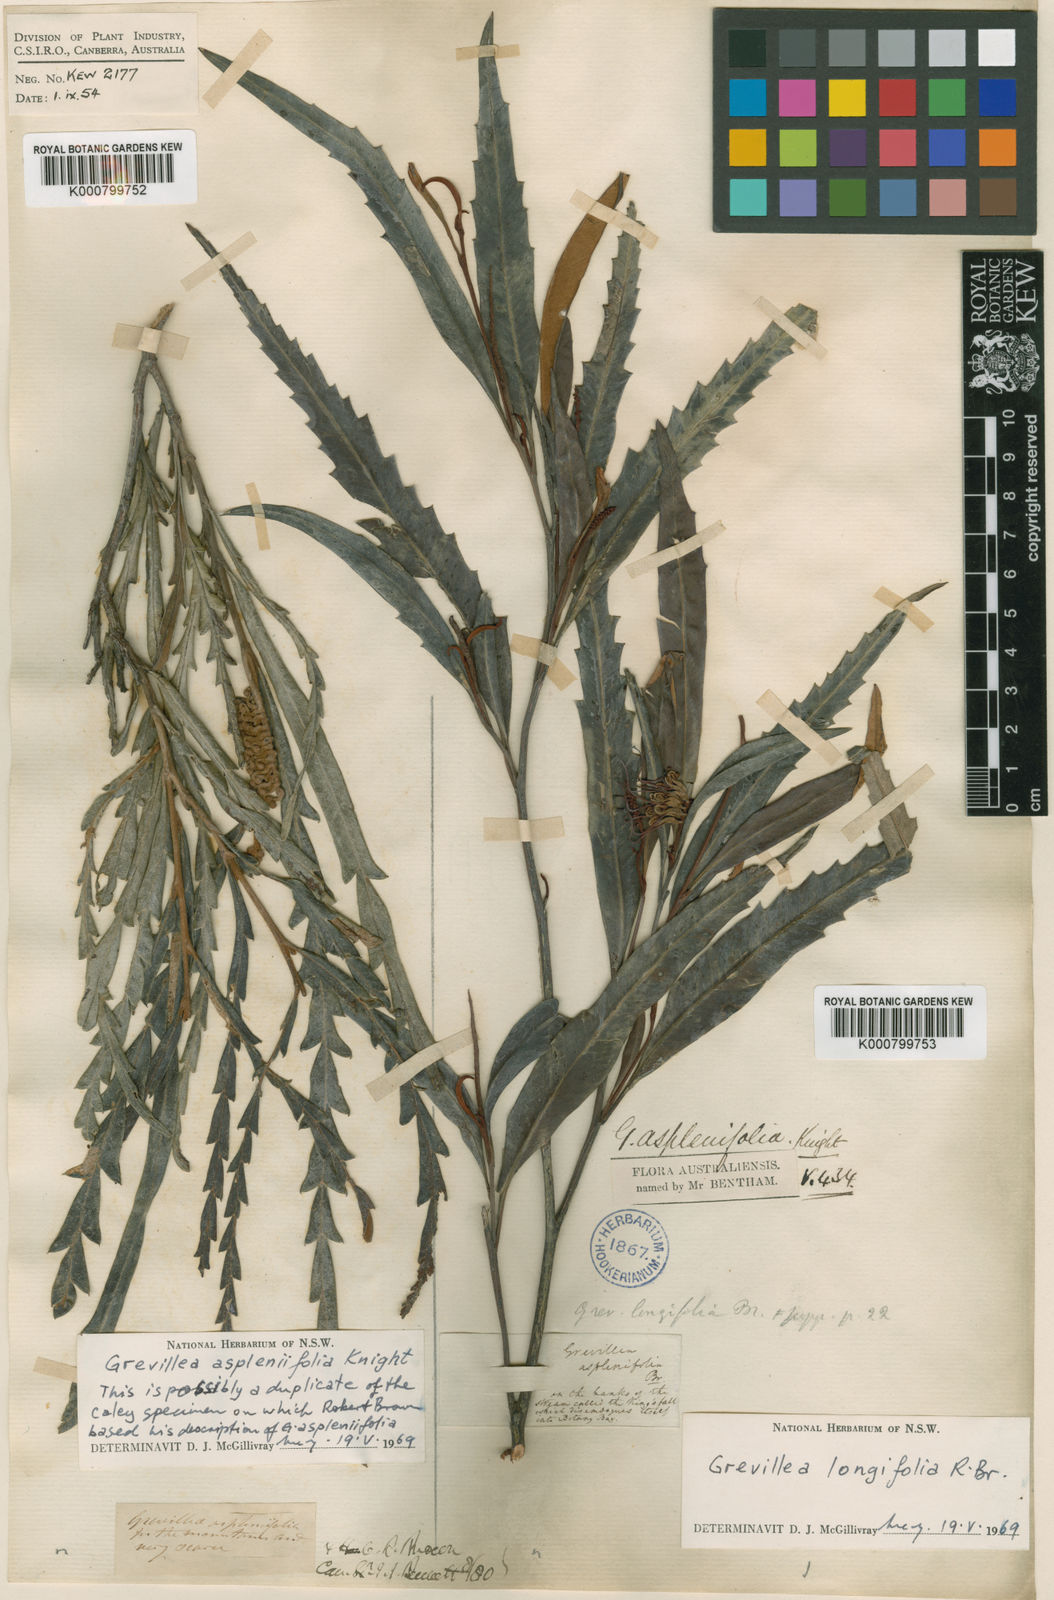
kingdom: Plantae
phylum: Tracheophyta
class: Magnoliopsida
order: Proteales
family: Proteaceae
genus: Grevillea
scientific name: Grevillea longifolia
